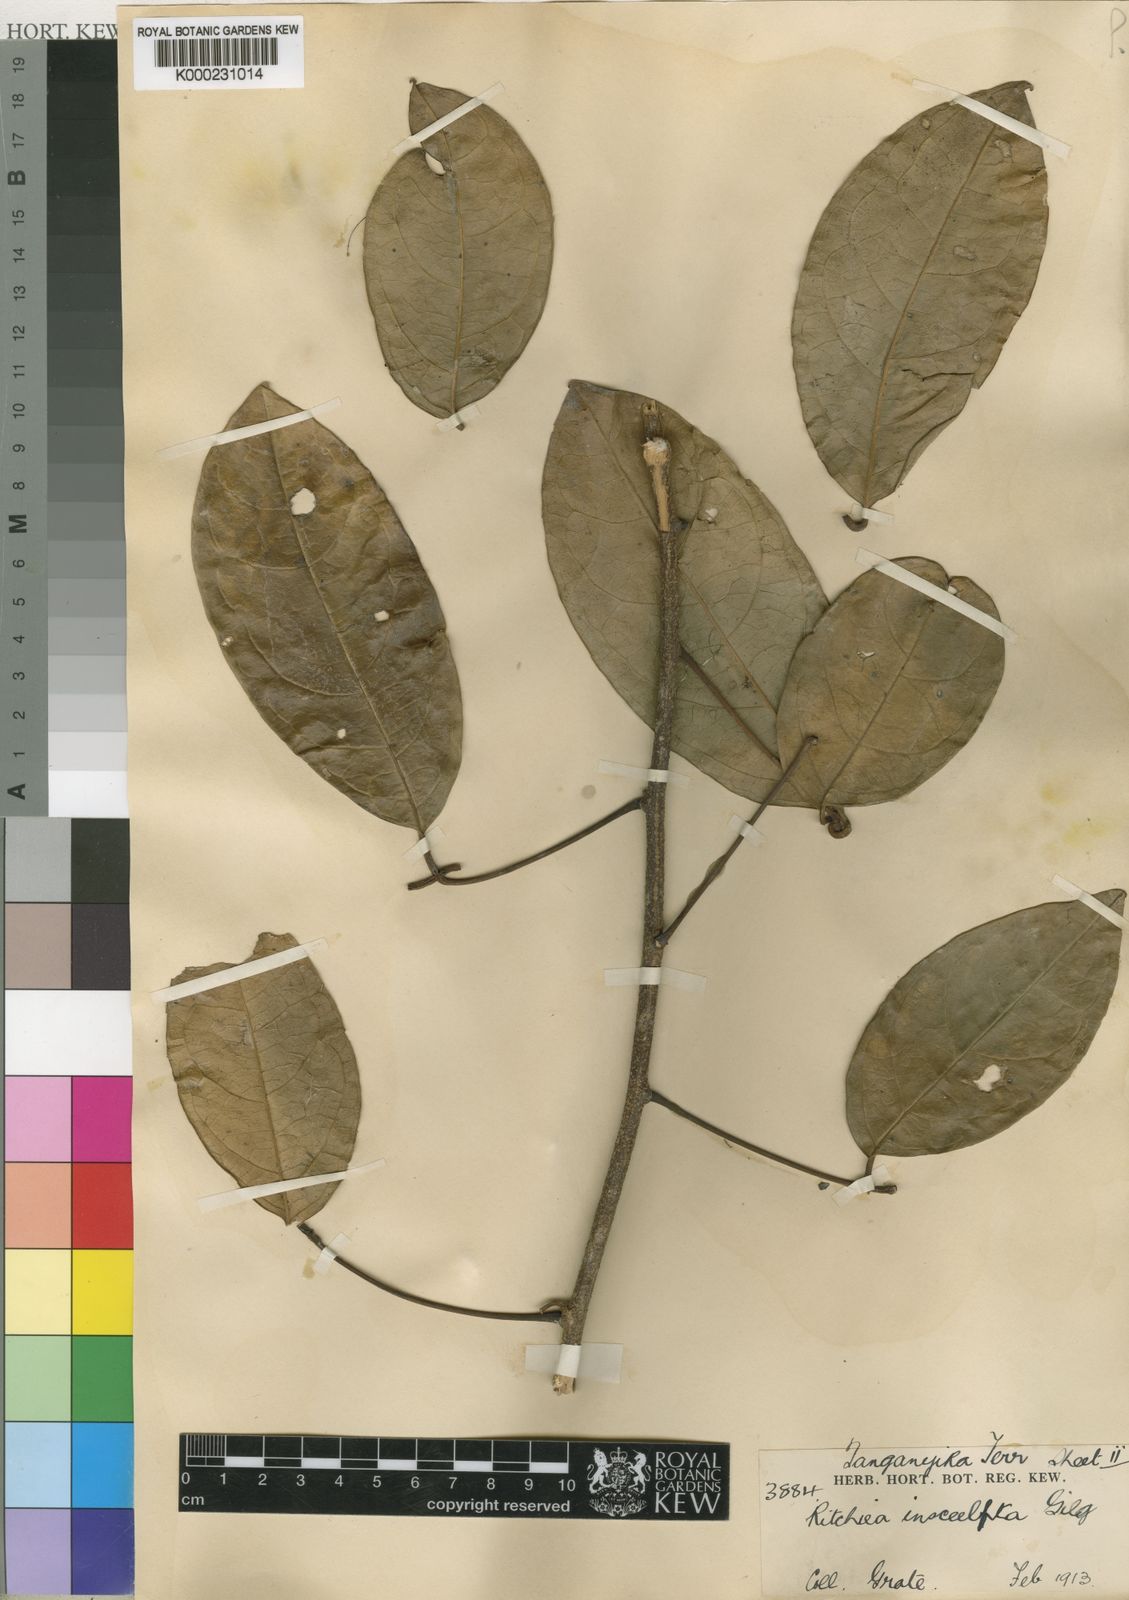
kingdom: Plantae
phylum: Tracheophyta
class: Magnoliopsida
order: Brassicales
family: Capparaceae
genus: Ritchiea
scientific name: Ritchiea capparoides
